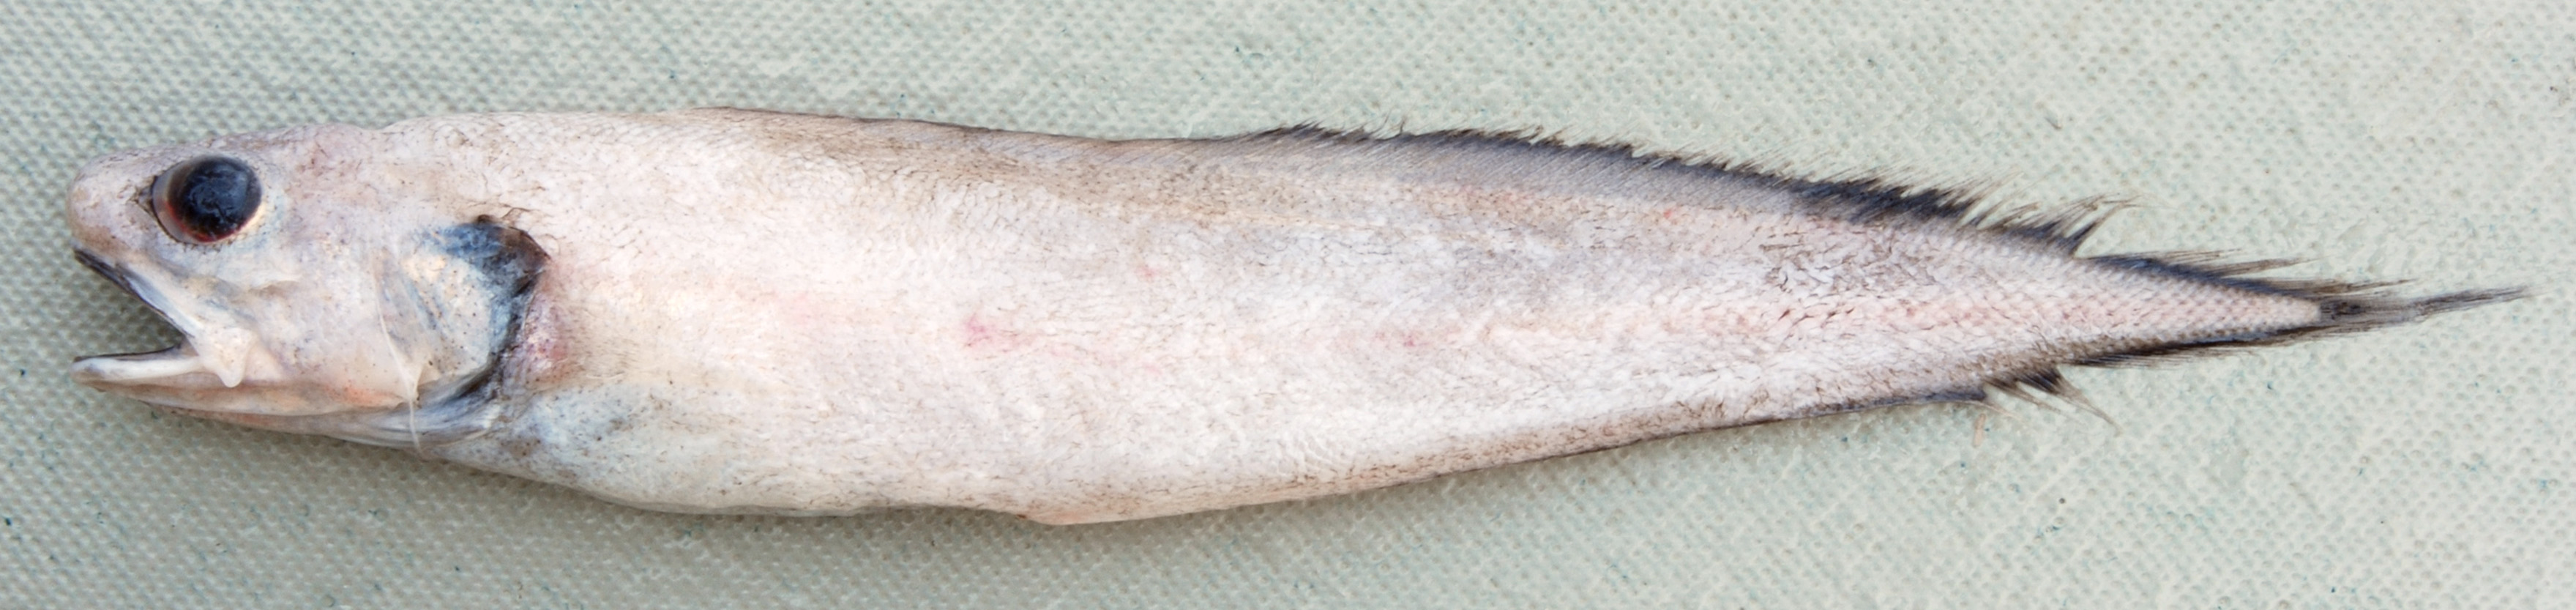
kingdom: Animalia
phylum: Chordata
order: Ophidiiformes
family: Ophidiidae
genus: Monomitopus
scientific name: Monomitopus
